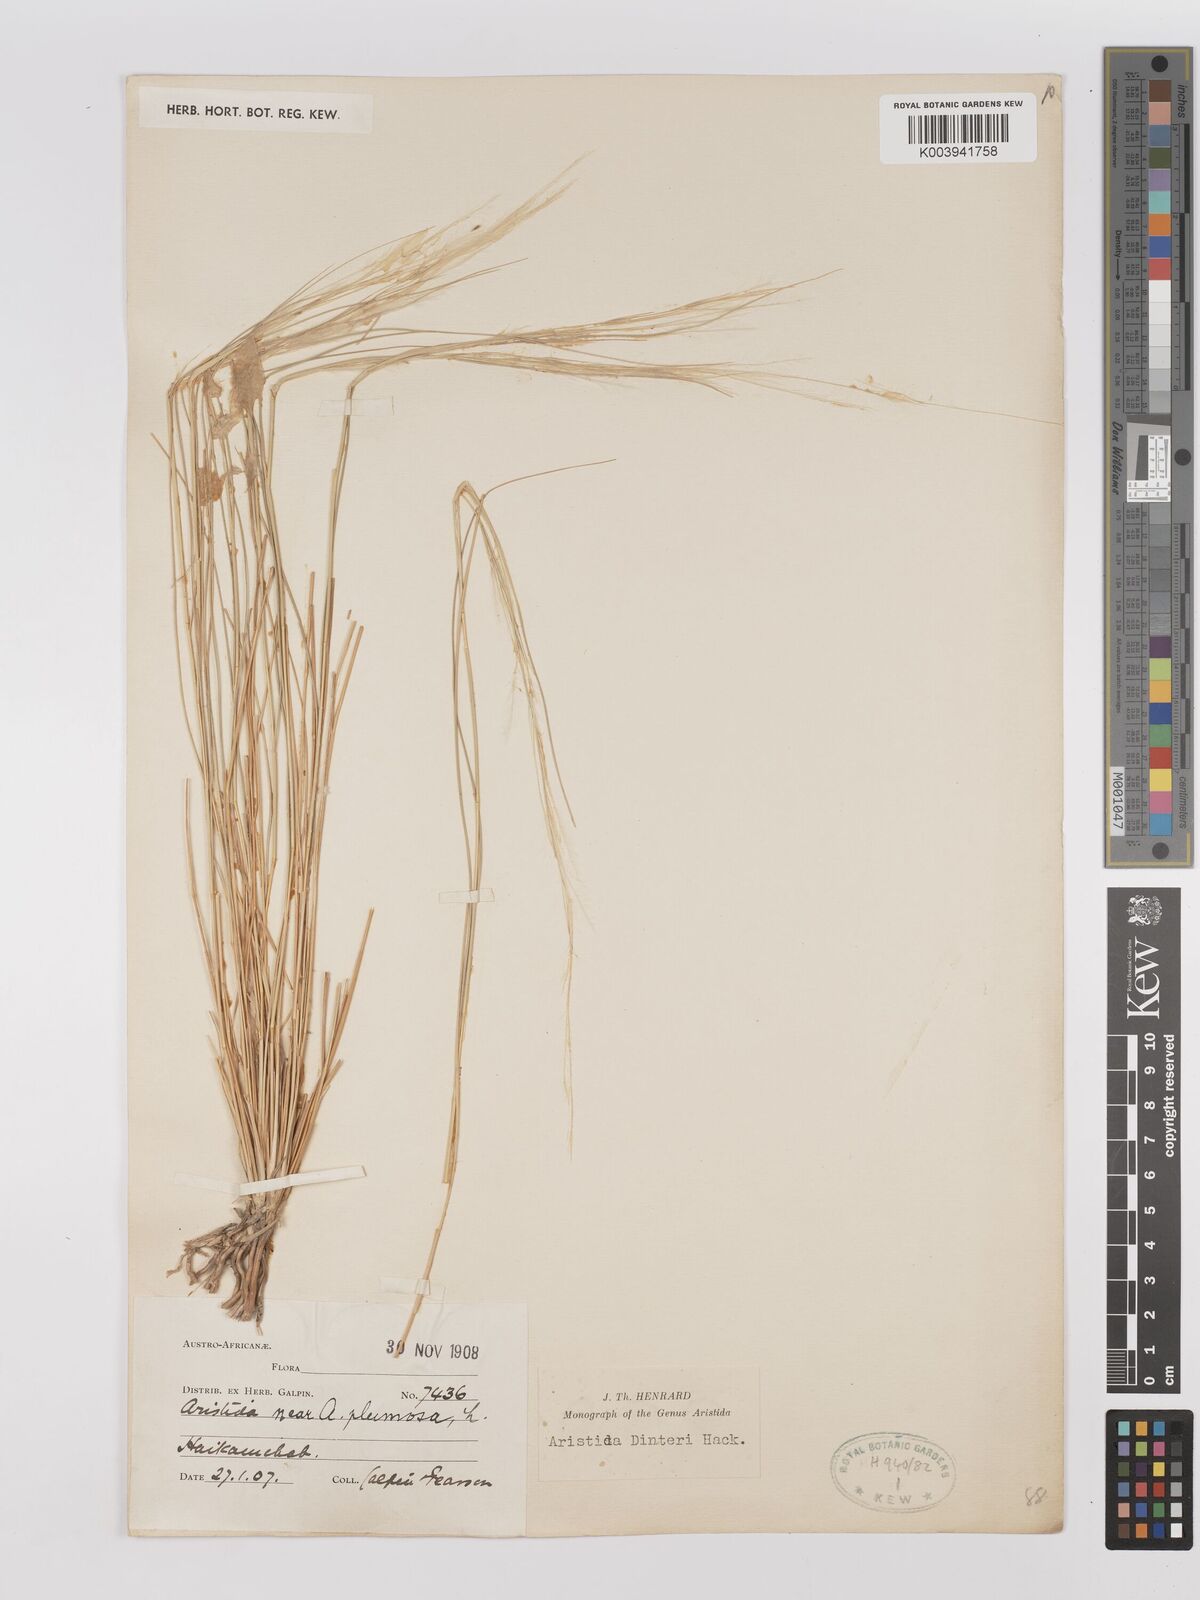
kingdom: Plantae
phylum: Tracheophyta
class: Liliopsida
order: Poales
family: Poaceae
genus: Stipagrostis
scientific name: Stipagrostis dinteri
